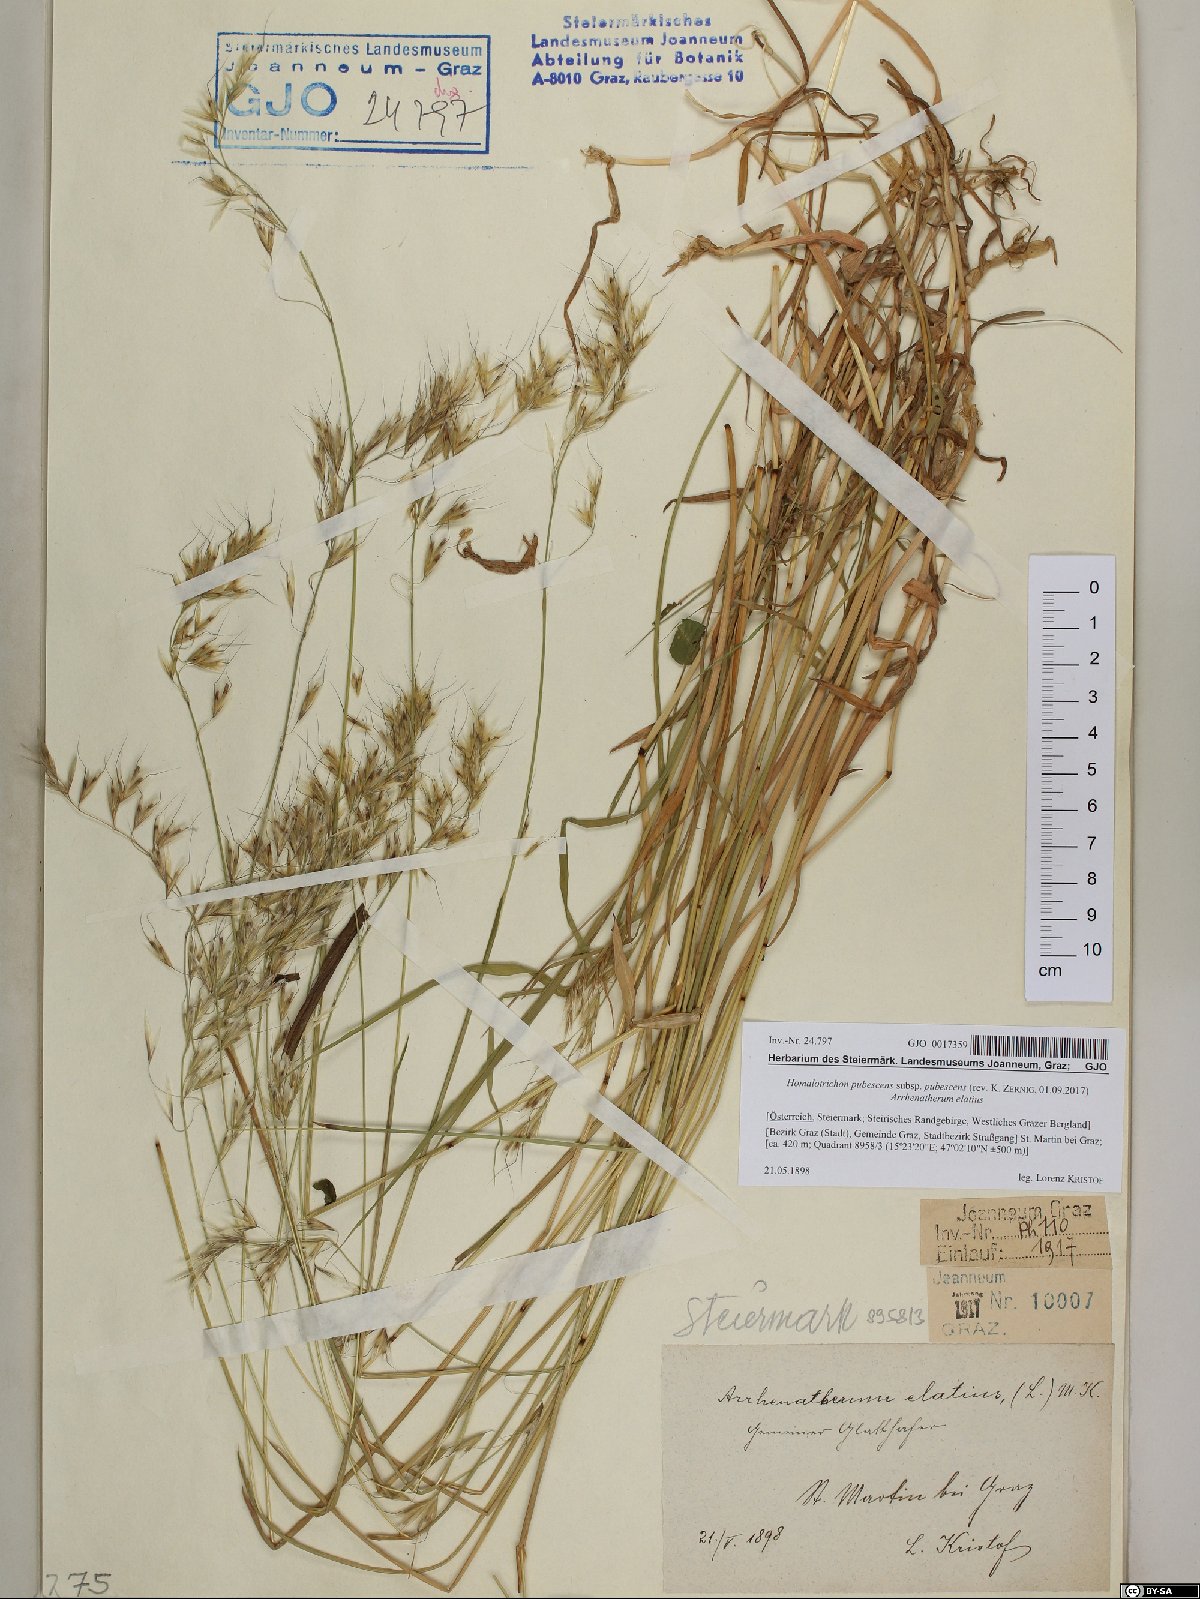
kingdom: Plantae
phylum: Tracheophyta
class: Liliopsida
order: Poales
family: Poaceae
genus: Avenula
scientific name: Avenula pubescens
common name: Downy alpine oatgrass
